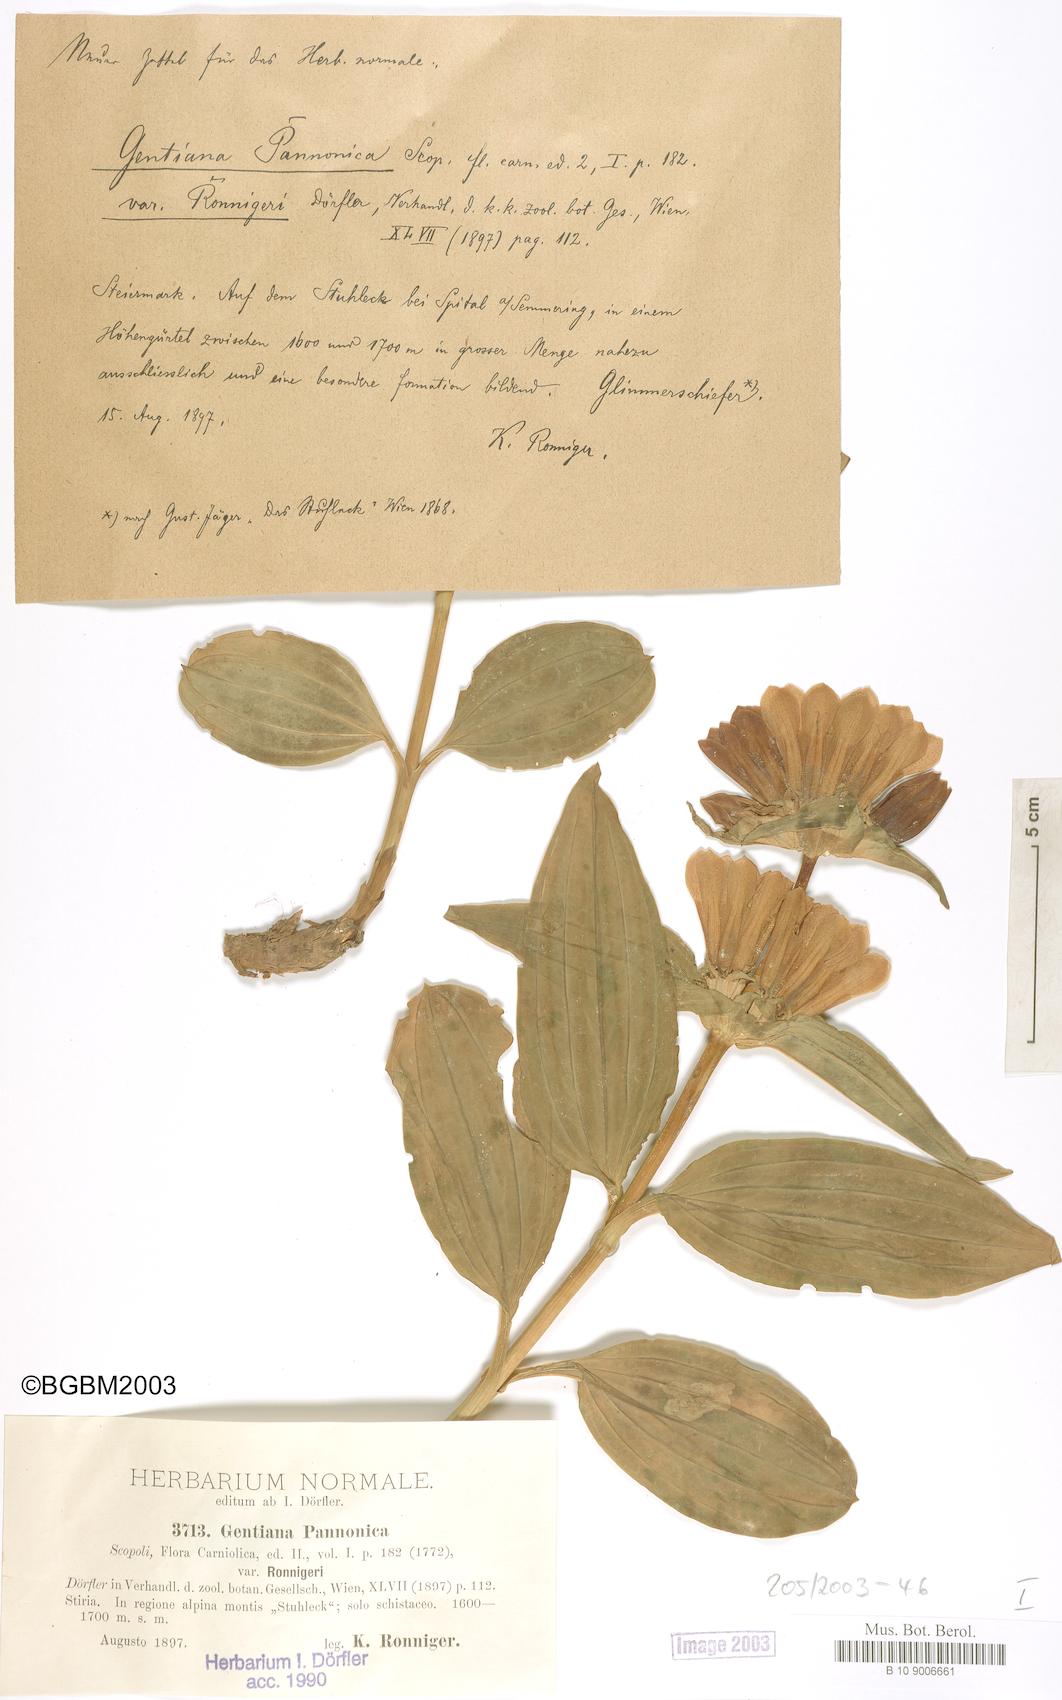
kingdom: Plantae
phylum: Tracheophyta
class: Magnoliopsida
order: Gentianales
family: Gentianaceae
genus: Gentiana
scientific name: Gentiana pannonica
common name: Hungarian gentian
